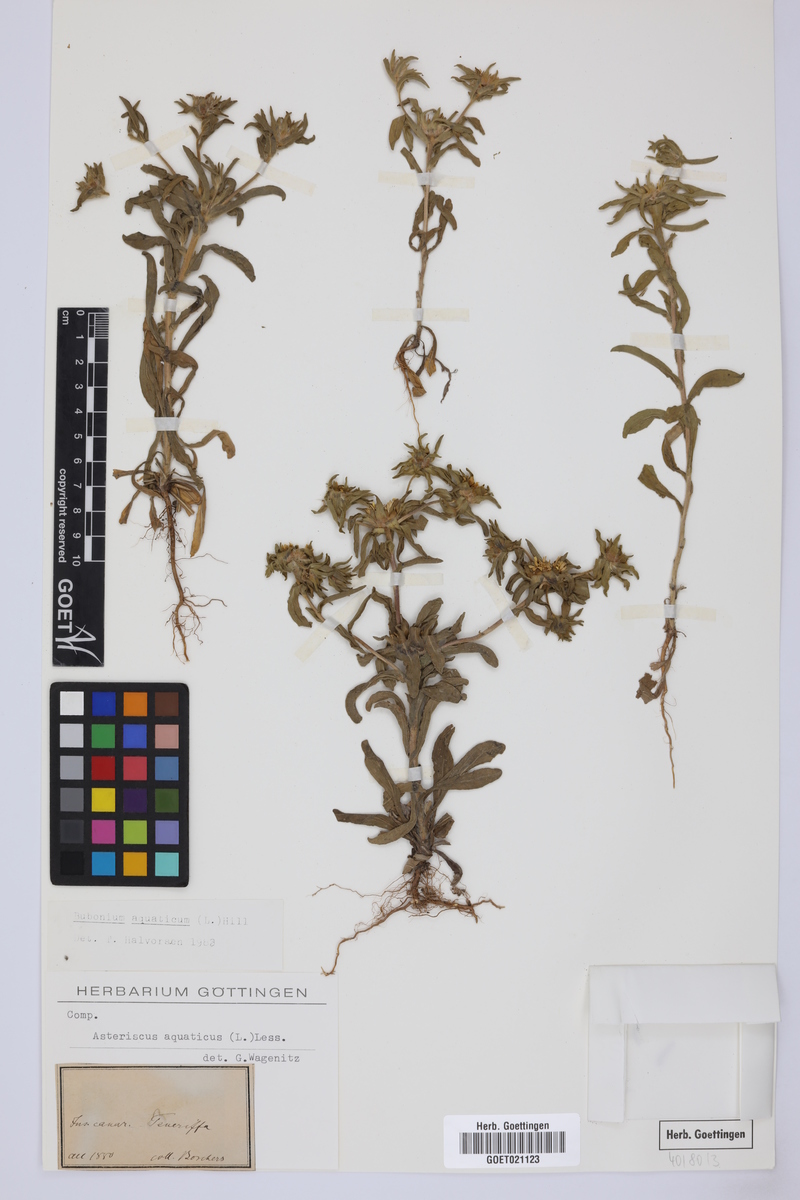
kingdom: Plantae
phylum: Tracheophyta
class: Magnoliopsida
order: Asterales
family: Asteraceae
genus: Asteriscus
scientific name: Asteriscus aquaticus
